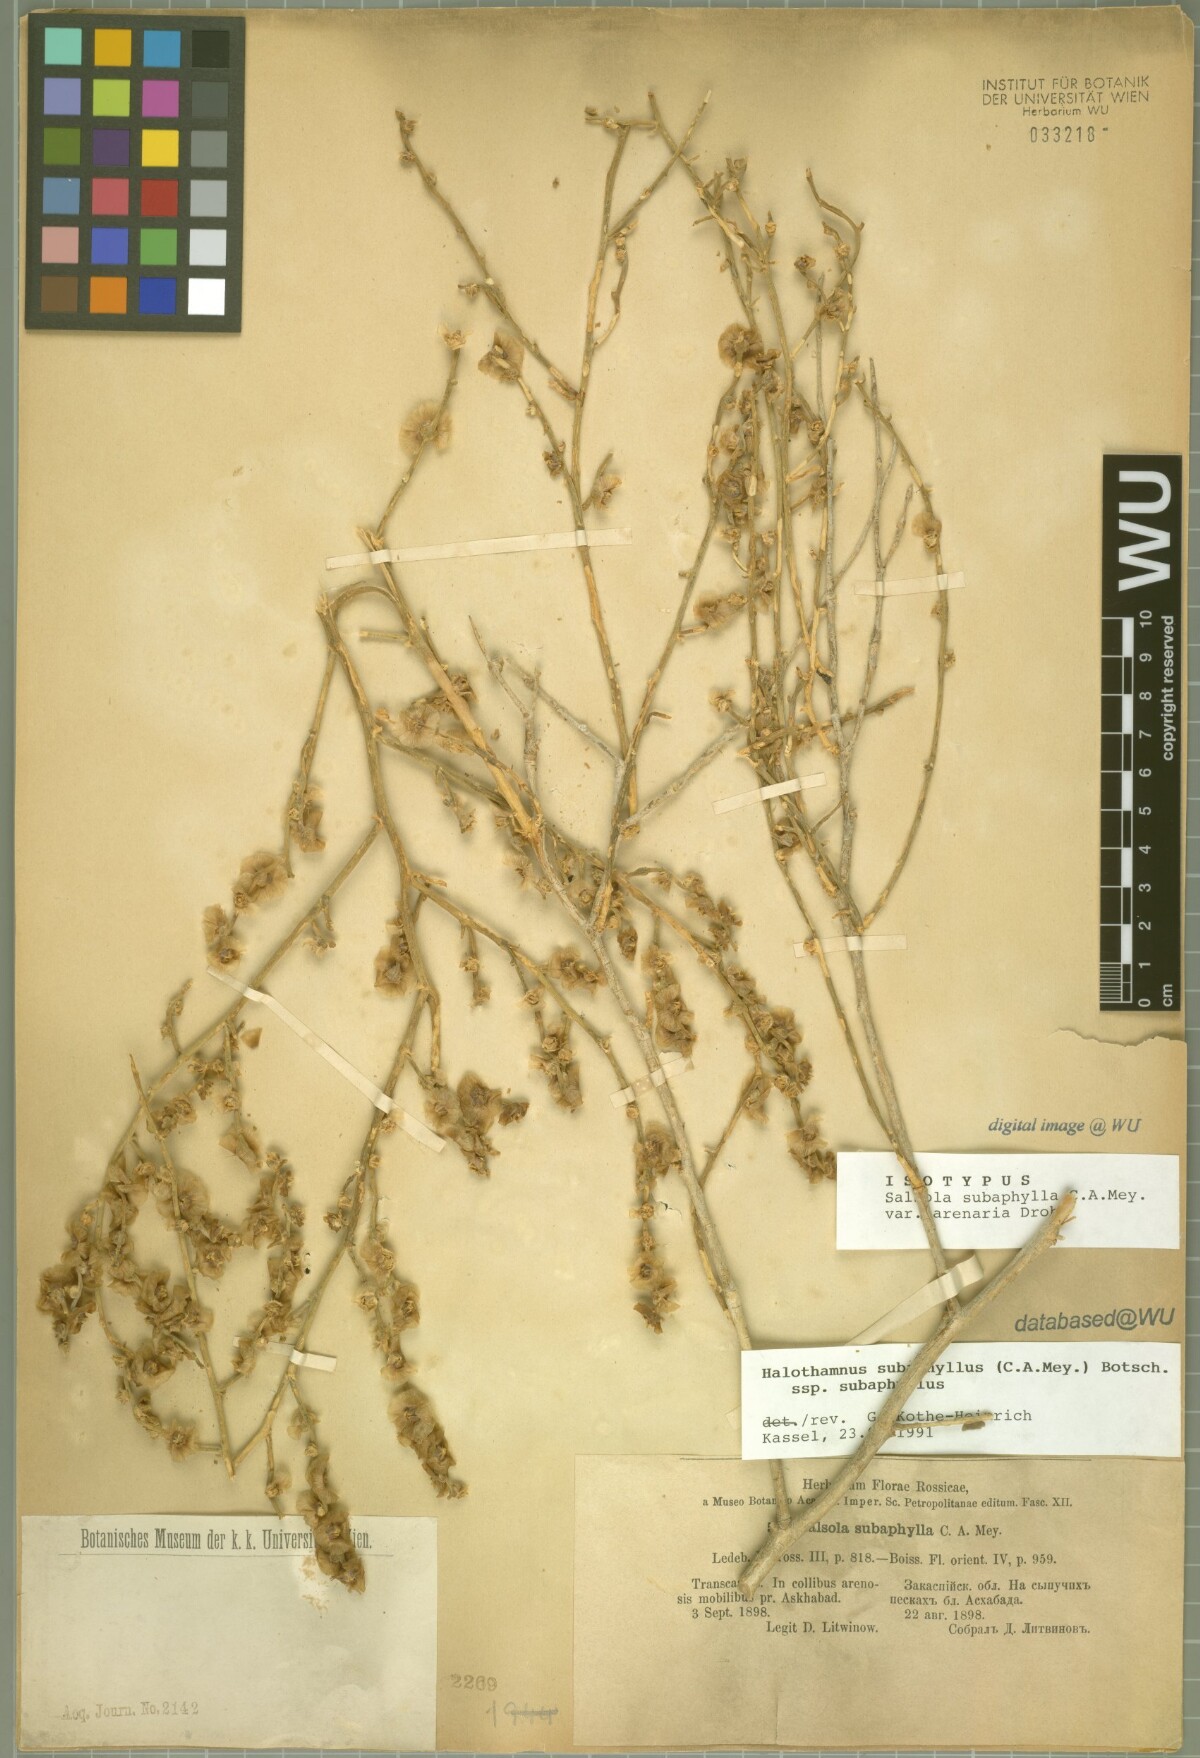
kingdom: Plantae
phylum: Tracheophyta
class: Magnoliopsida
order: Caryophyllales
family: Amaranthaceae
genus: Halothamnus
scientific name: Halothamnus subaphyllus
